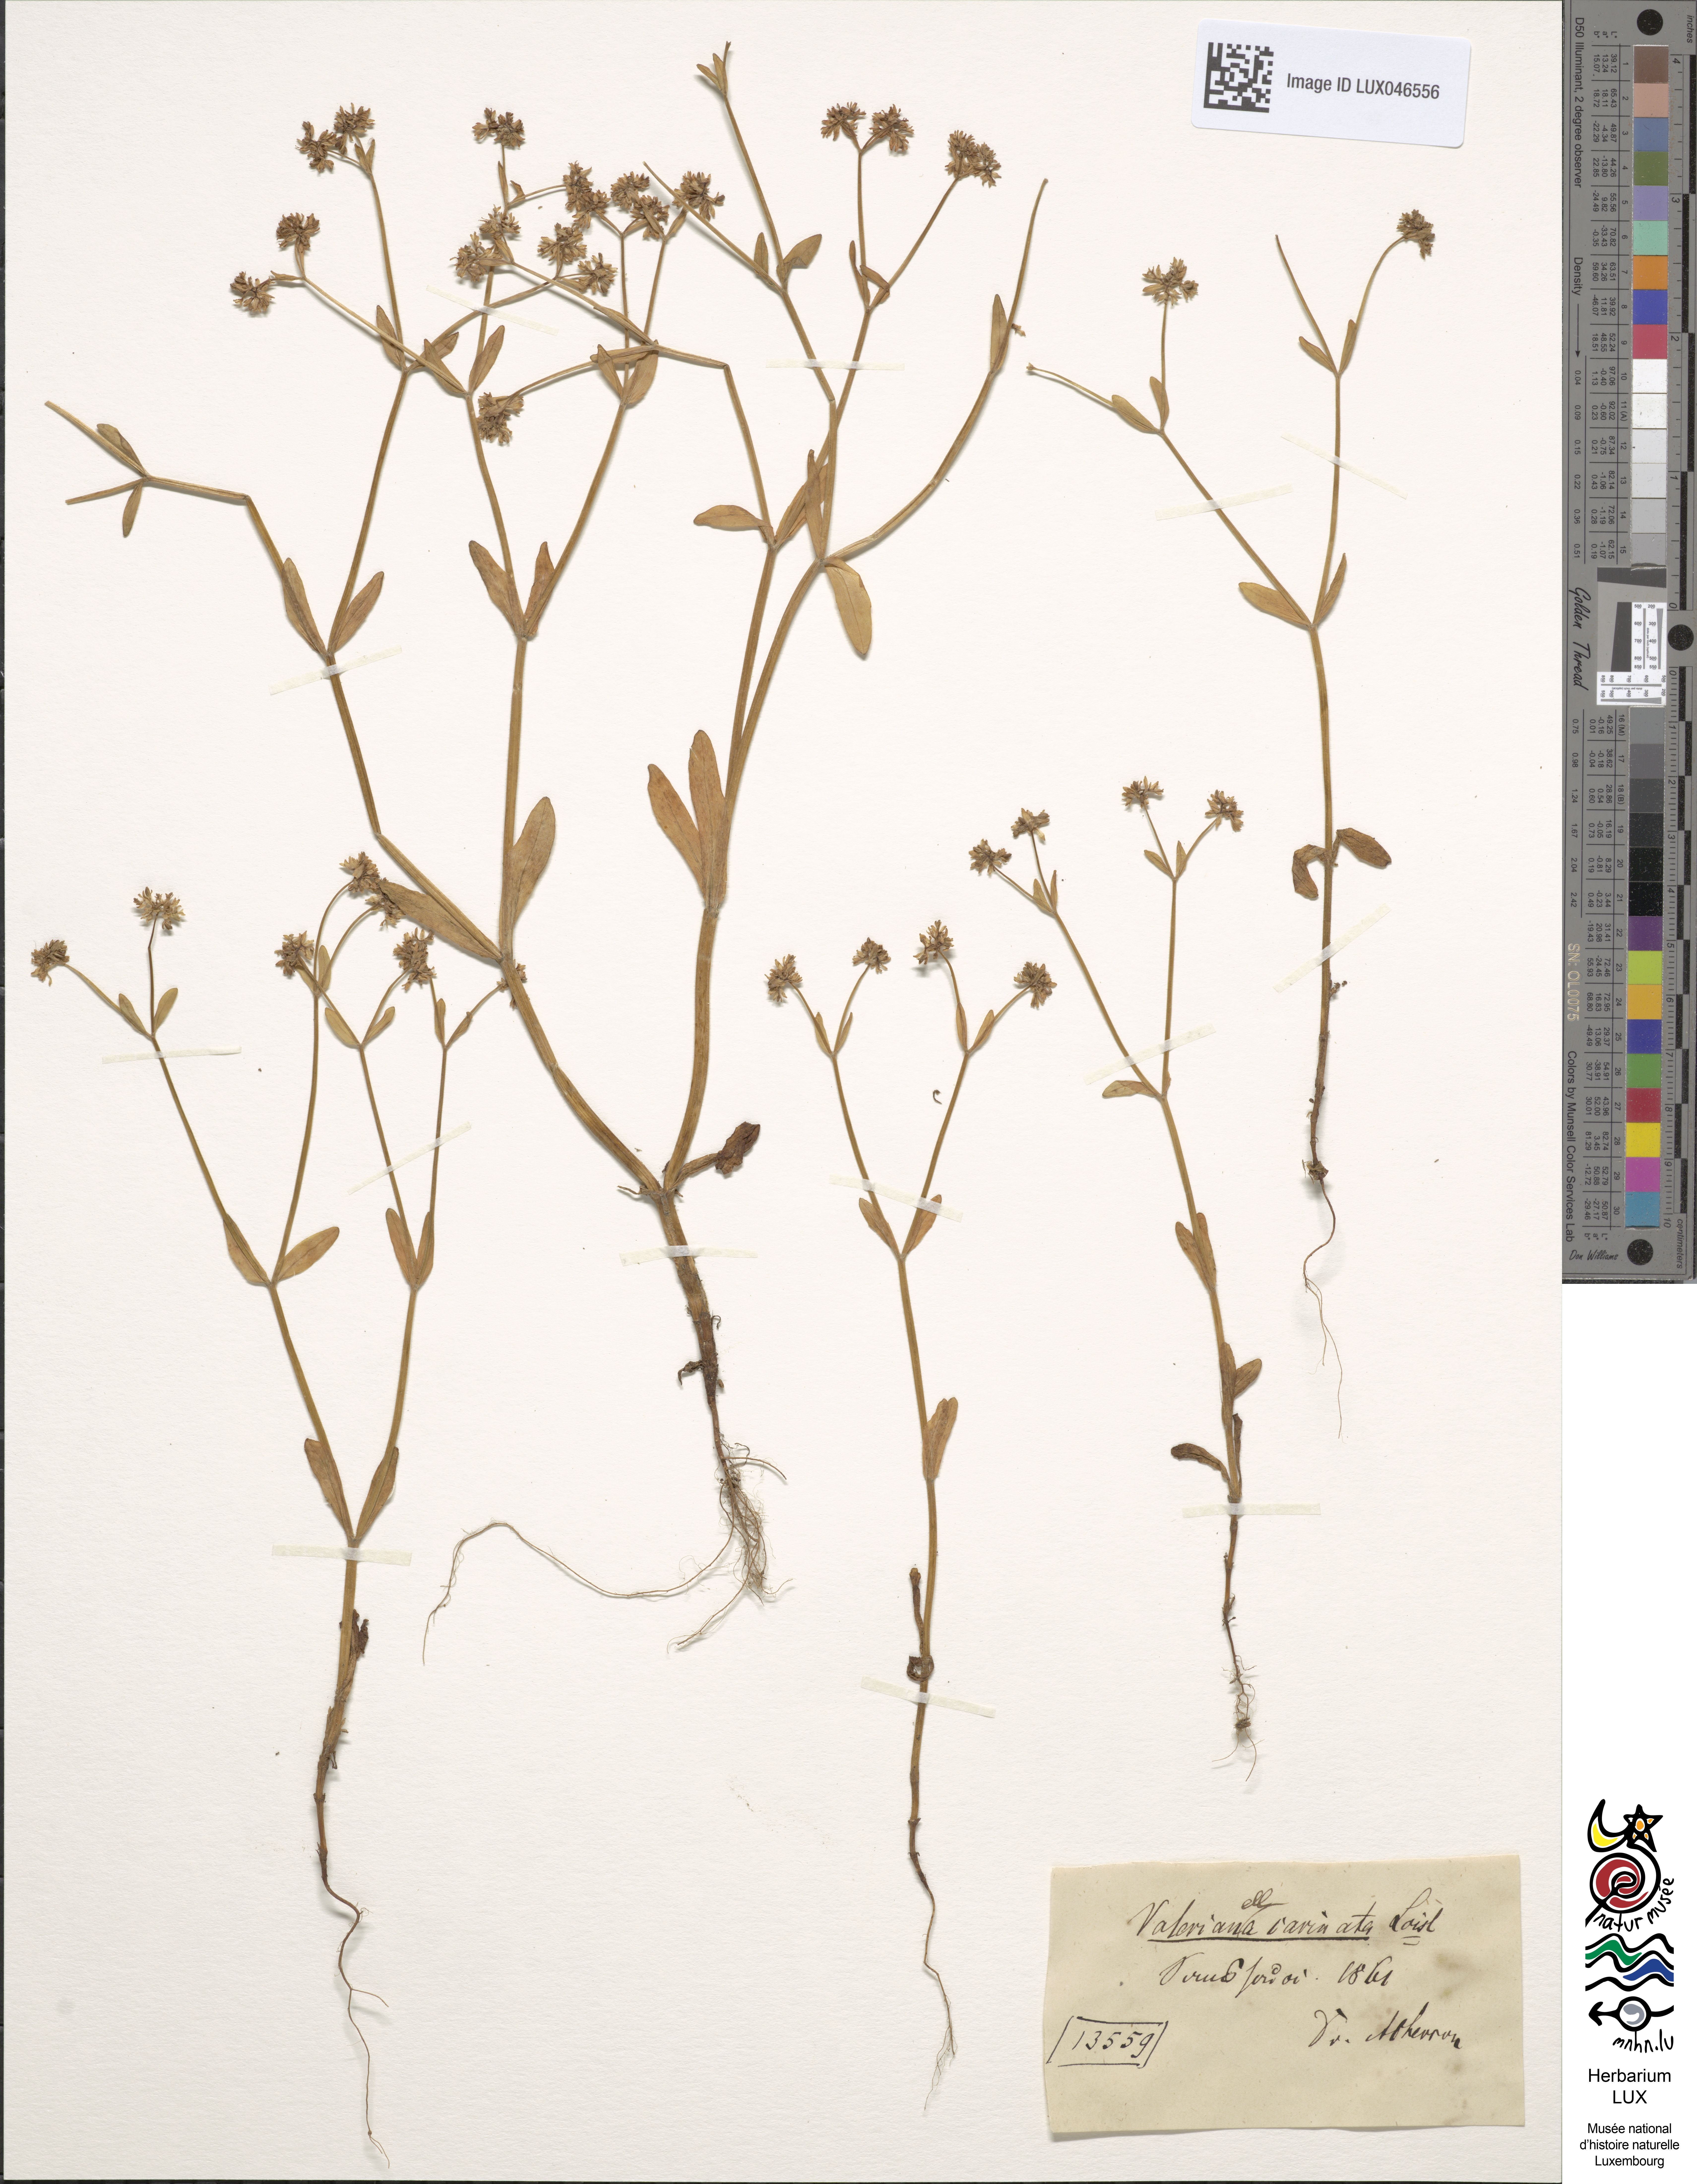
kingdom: Plantae
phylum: Tracheophyta
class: Magnoliopsida
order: Dipsacales
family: Caprifoliaceae
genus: Valerianella
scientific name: Valerianella carinata
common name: Keeled-fruited cornsalad
